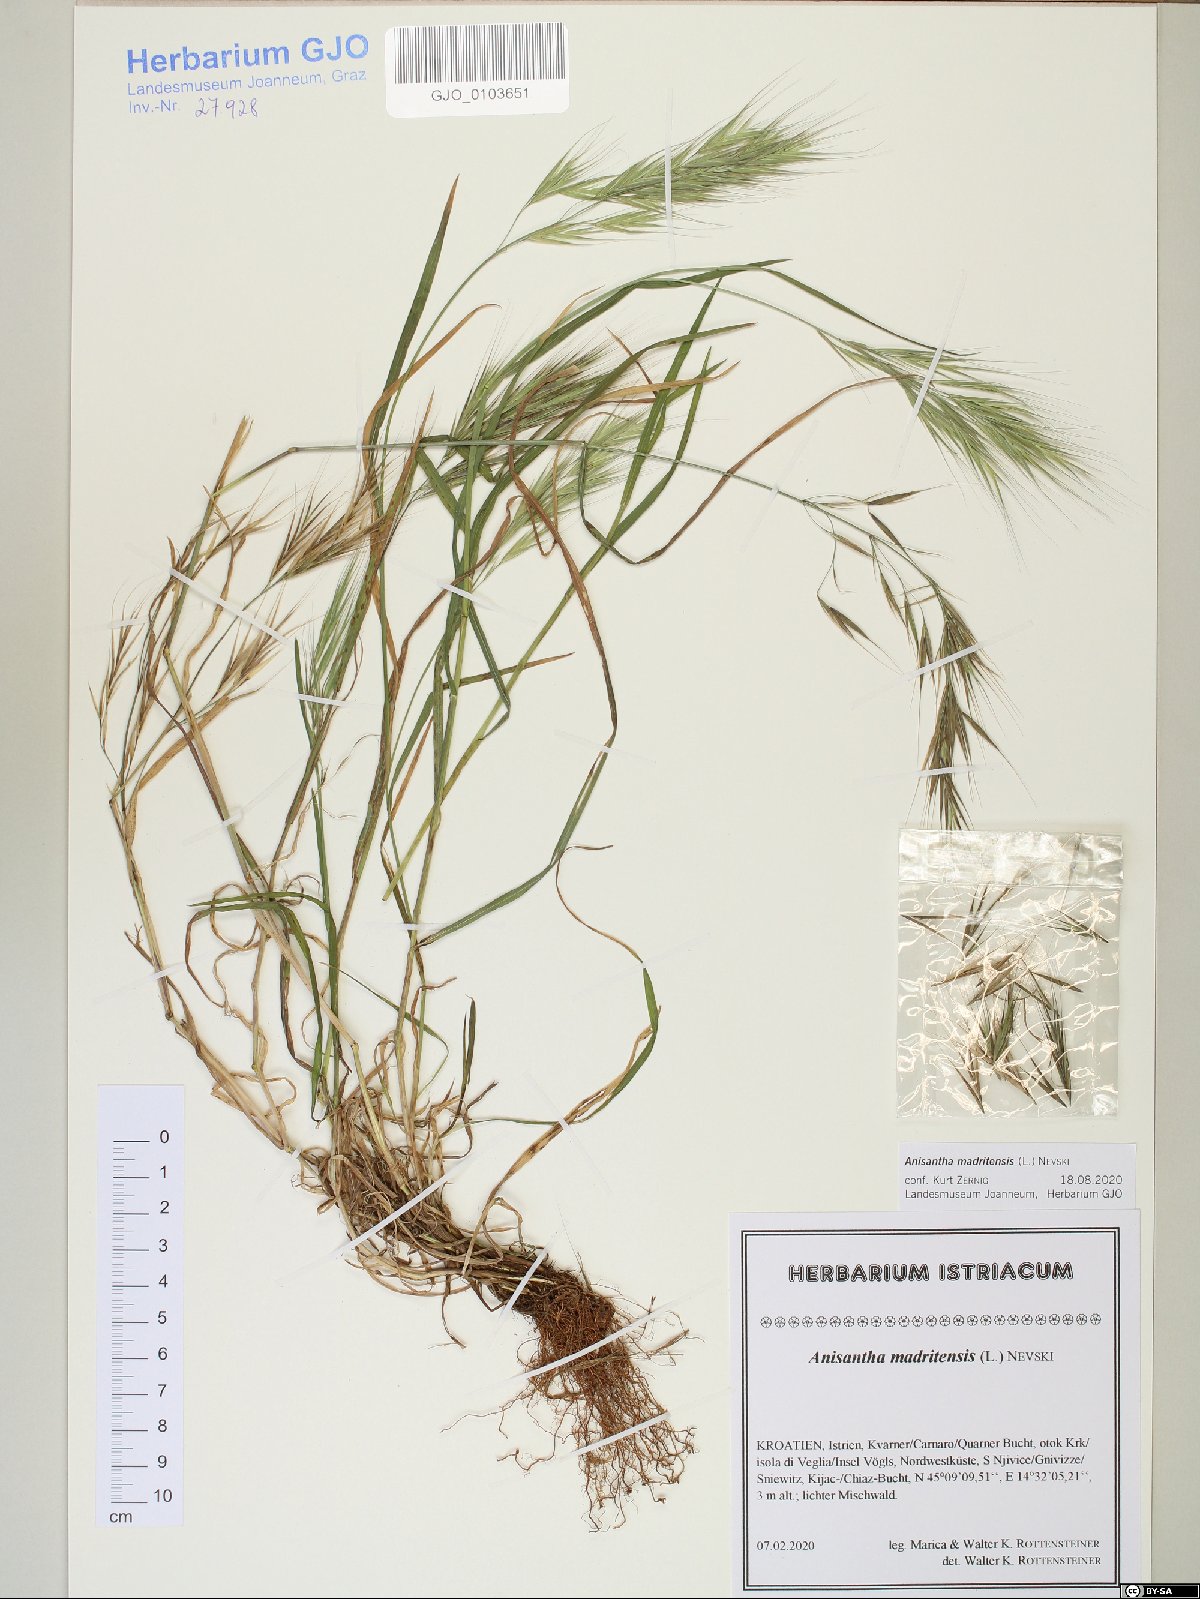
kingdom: Plantae
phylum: Tracheophyta
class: Liliopsida
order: Poales
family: Poaceae
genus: Bromus
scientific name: Bromus madritensis
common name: Compact brome
